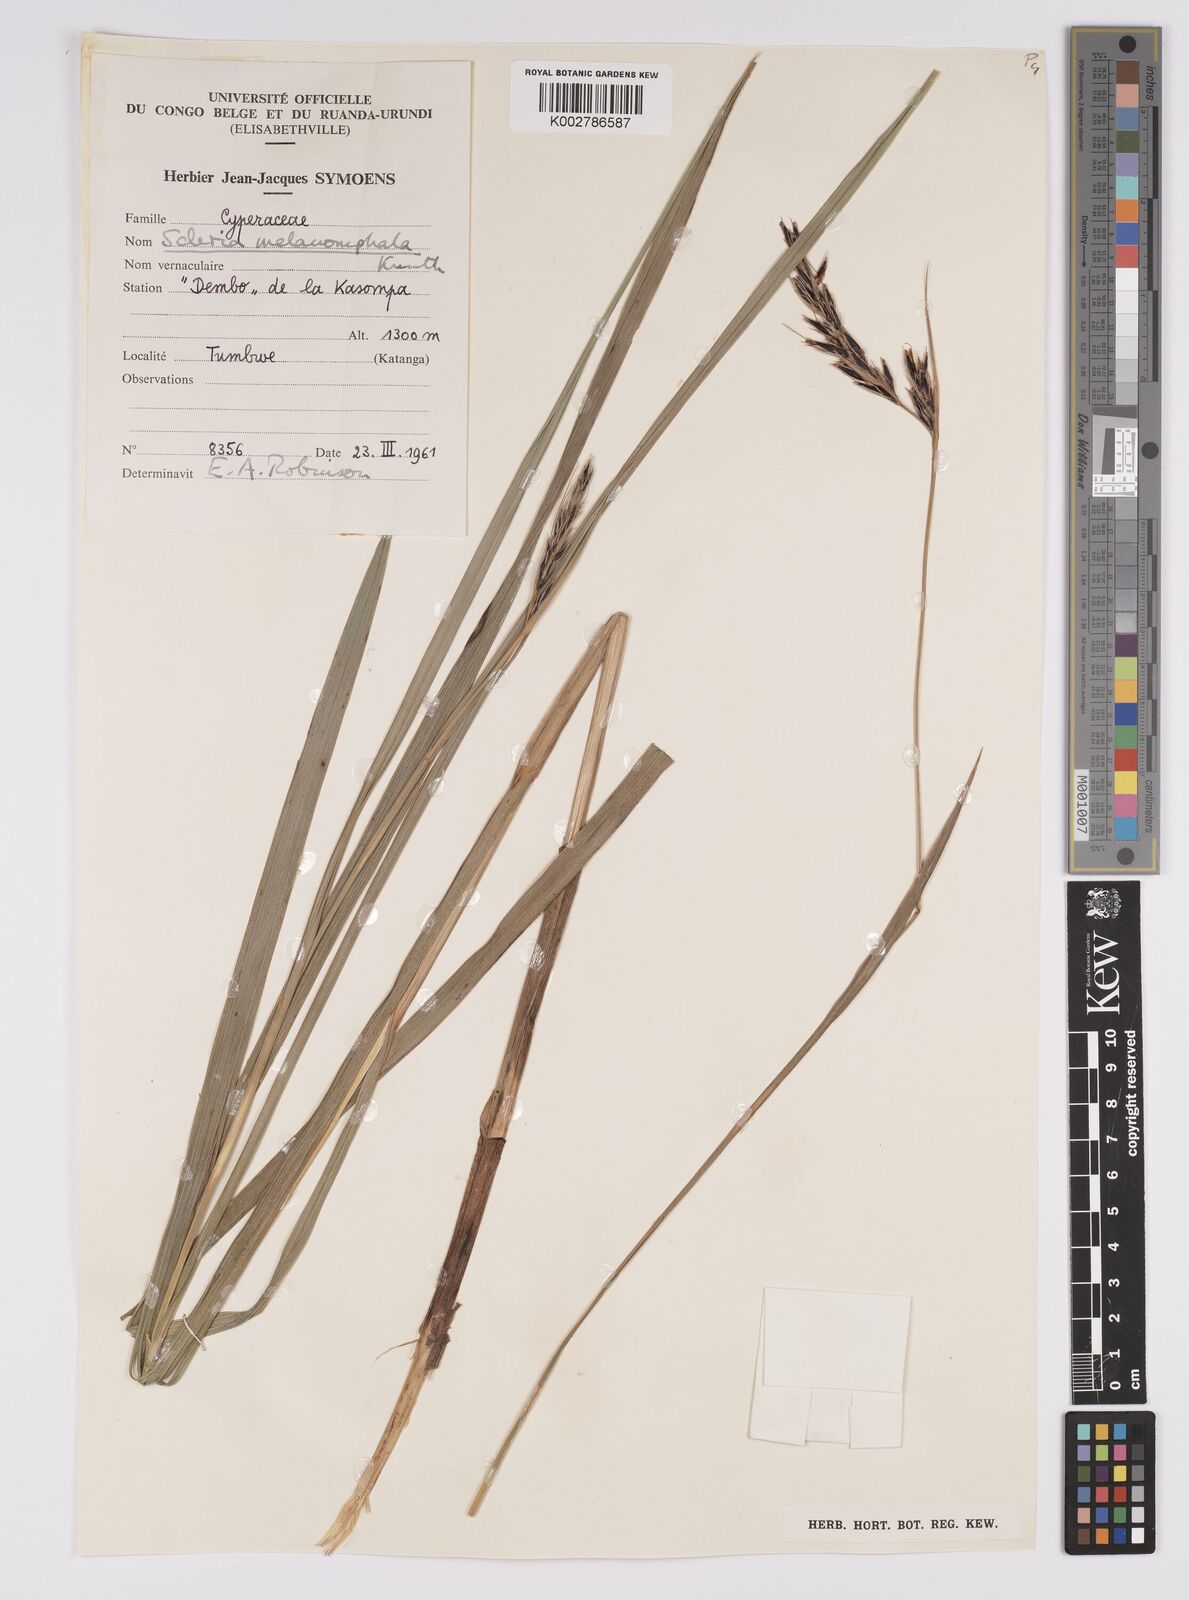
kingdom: Plantae
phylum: Tracheophyta
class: Liliopsida
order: Poales
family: Cyperaceae
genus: Scleria
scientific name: Scleria melanomphala
